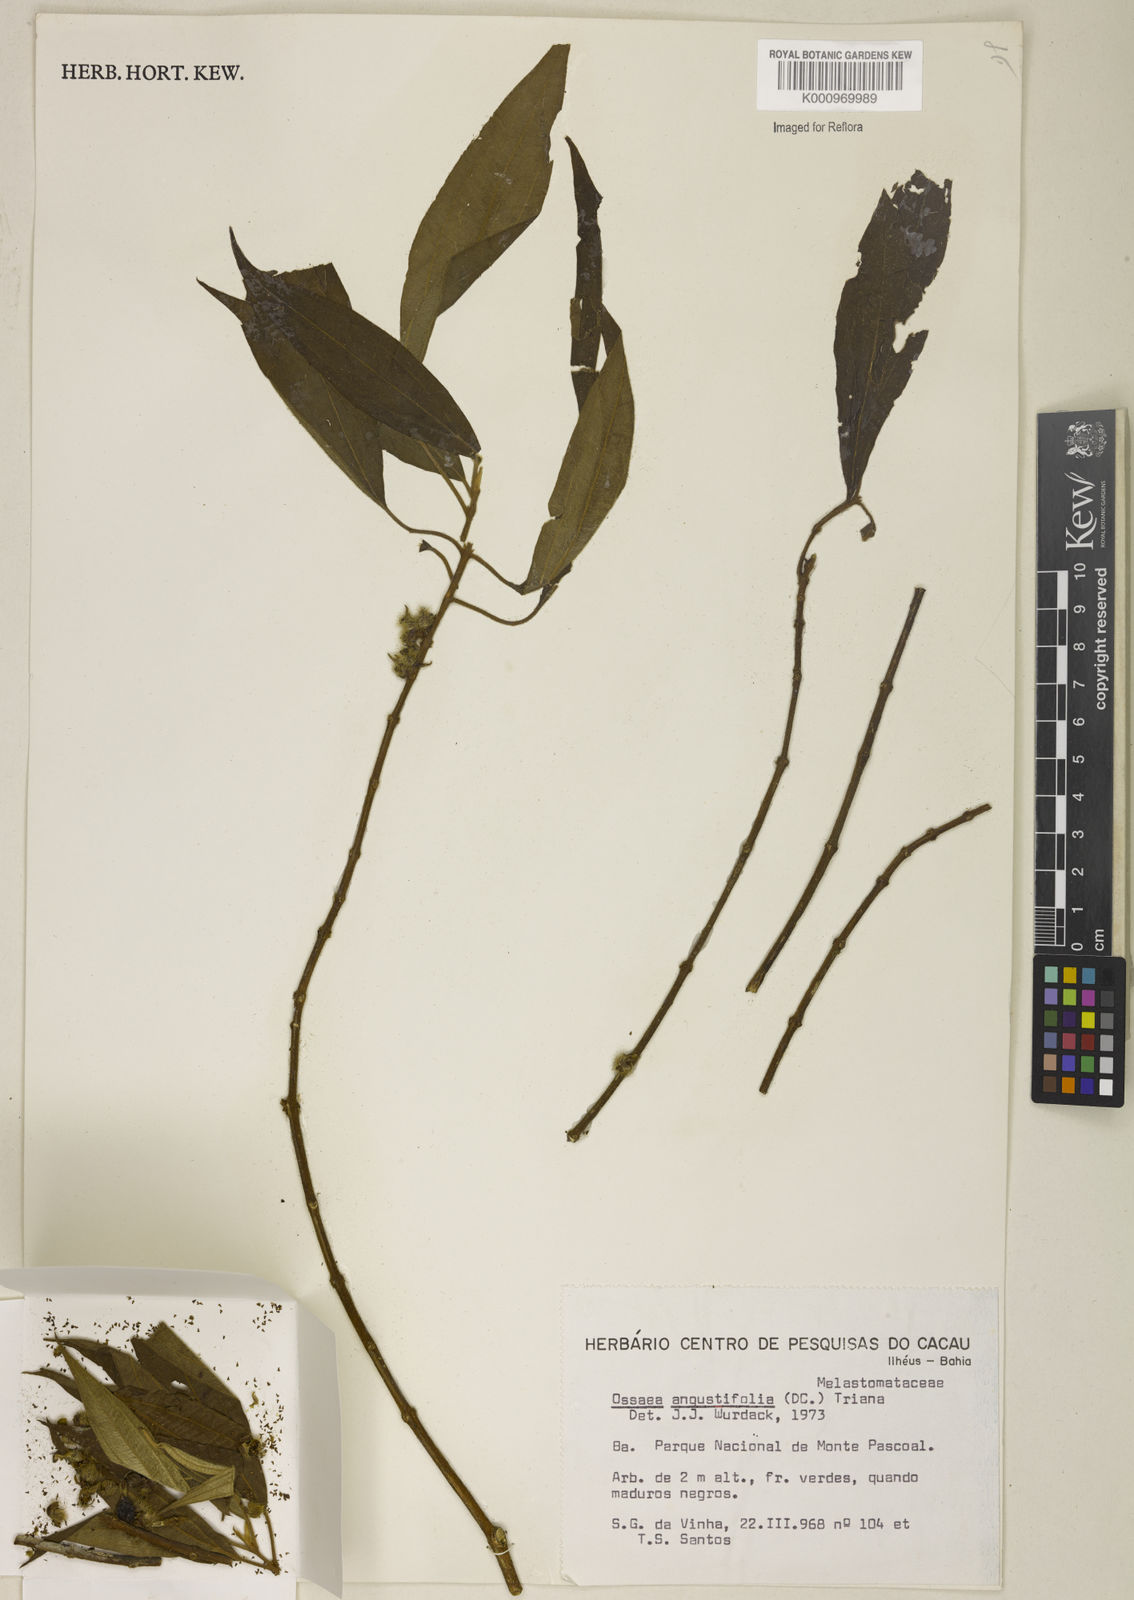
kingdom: Plantae
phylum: Tracheophyta
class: Magnoliopsida
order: Myrtales
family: Melastomataceae
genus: Miconia
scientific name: Miconia corcovadensis
